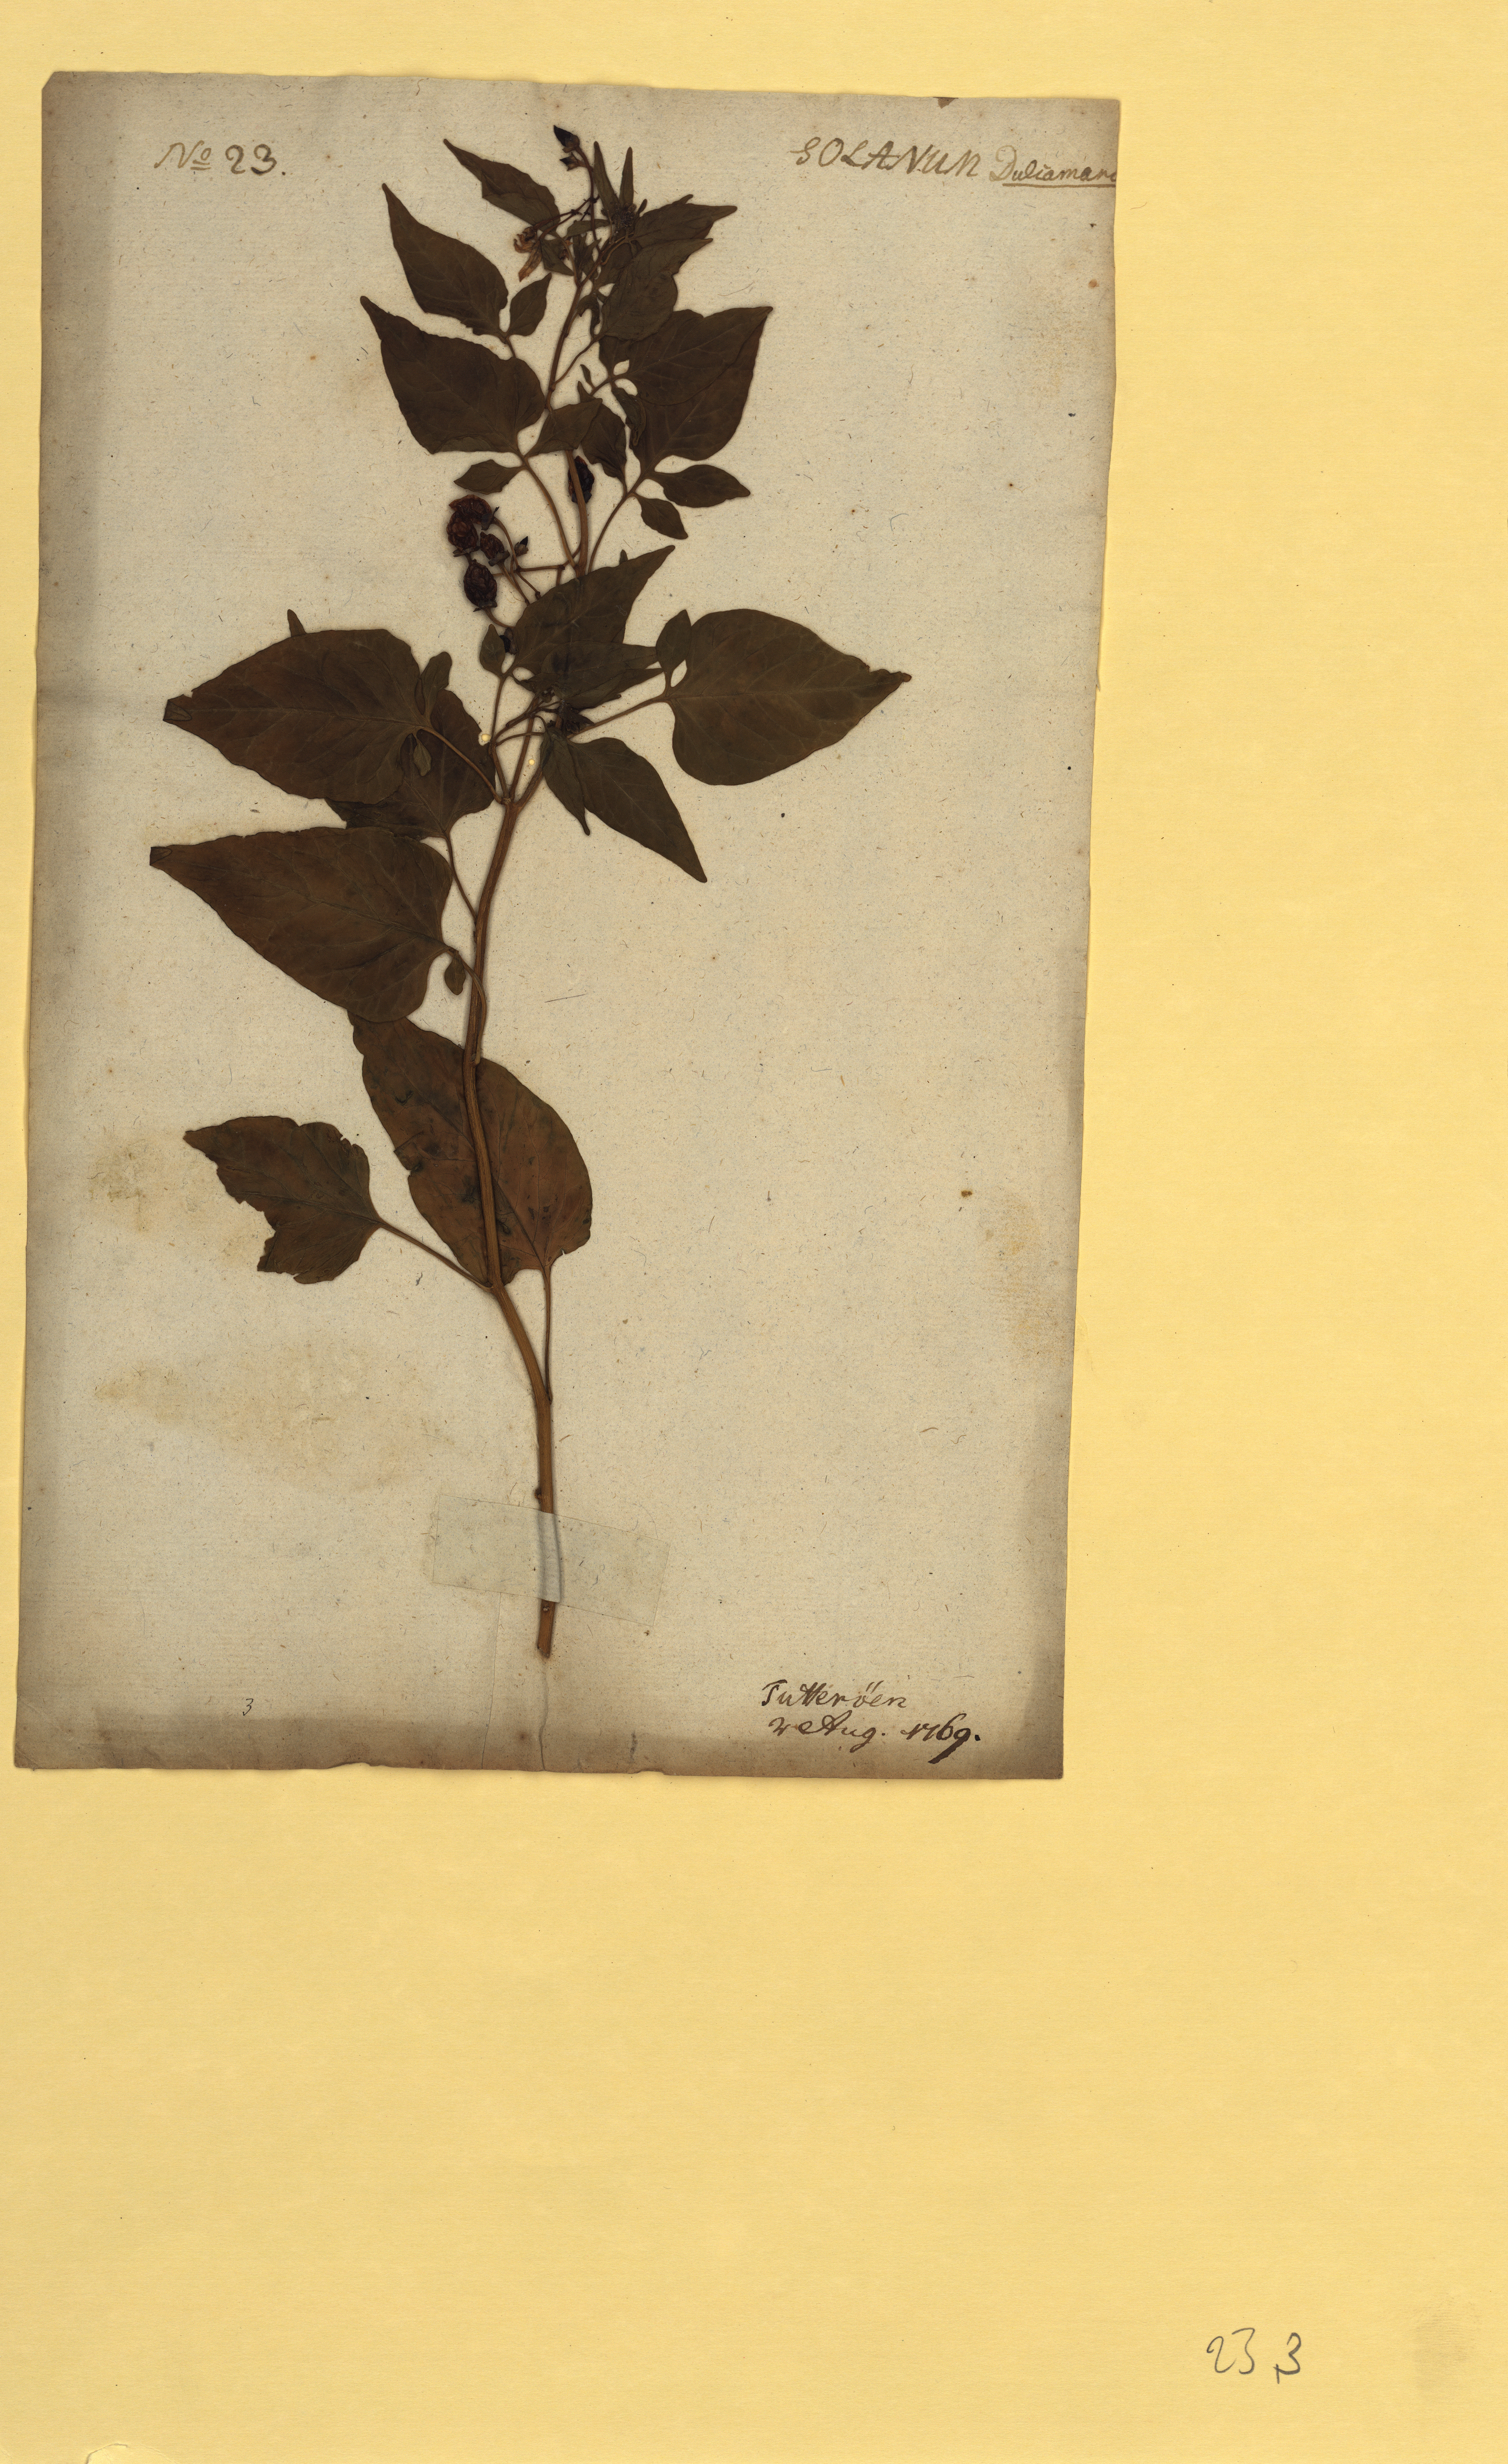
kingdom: Plantae
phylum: Tracheophyta
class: Magnoliopsida
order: Solanales
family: Solanaceae
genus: Solanum
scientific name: Solanum dulcamara
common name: Climbing nightshade
